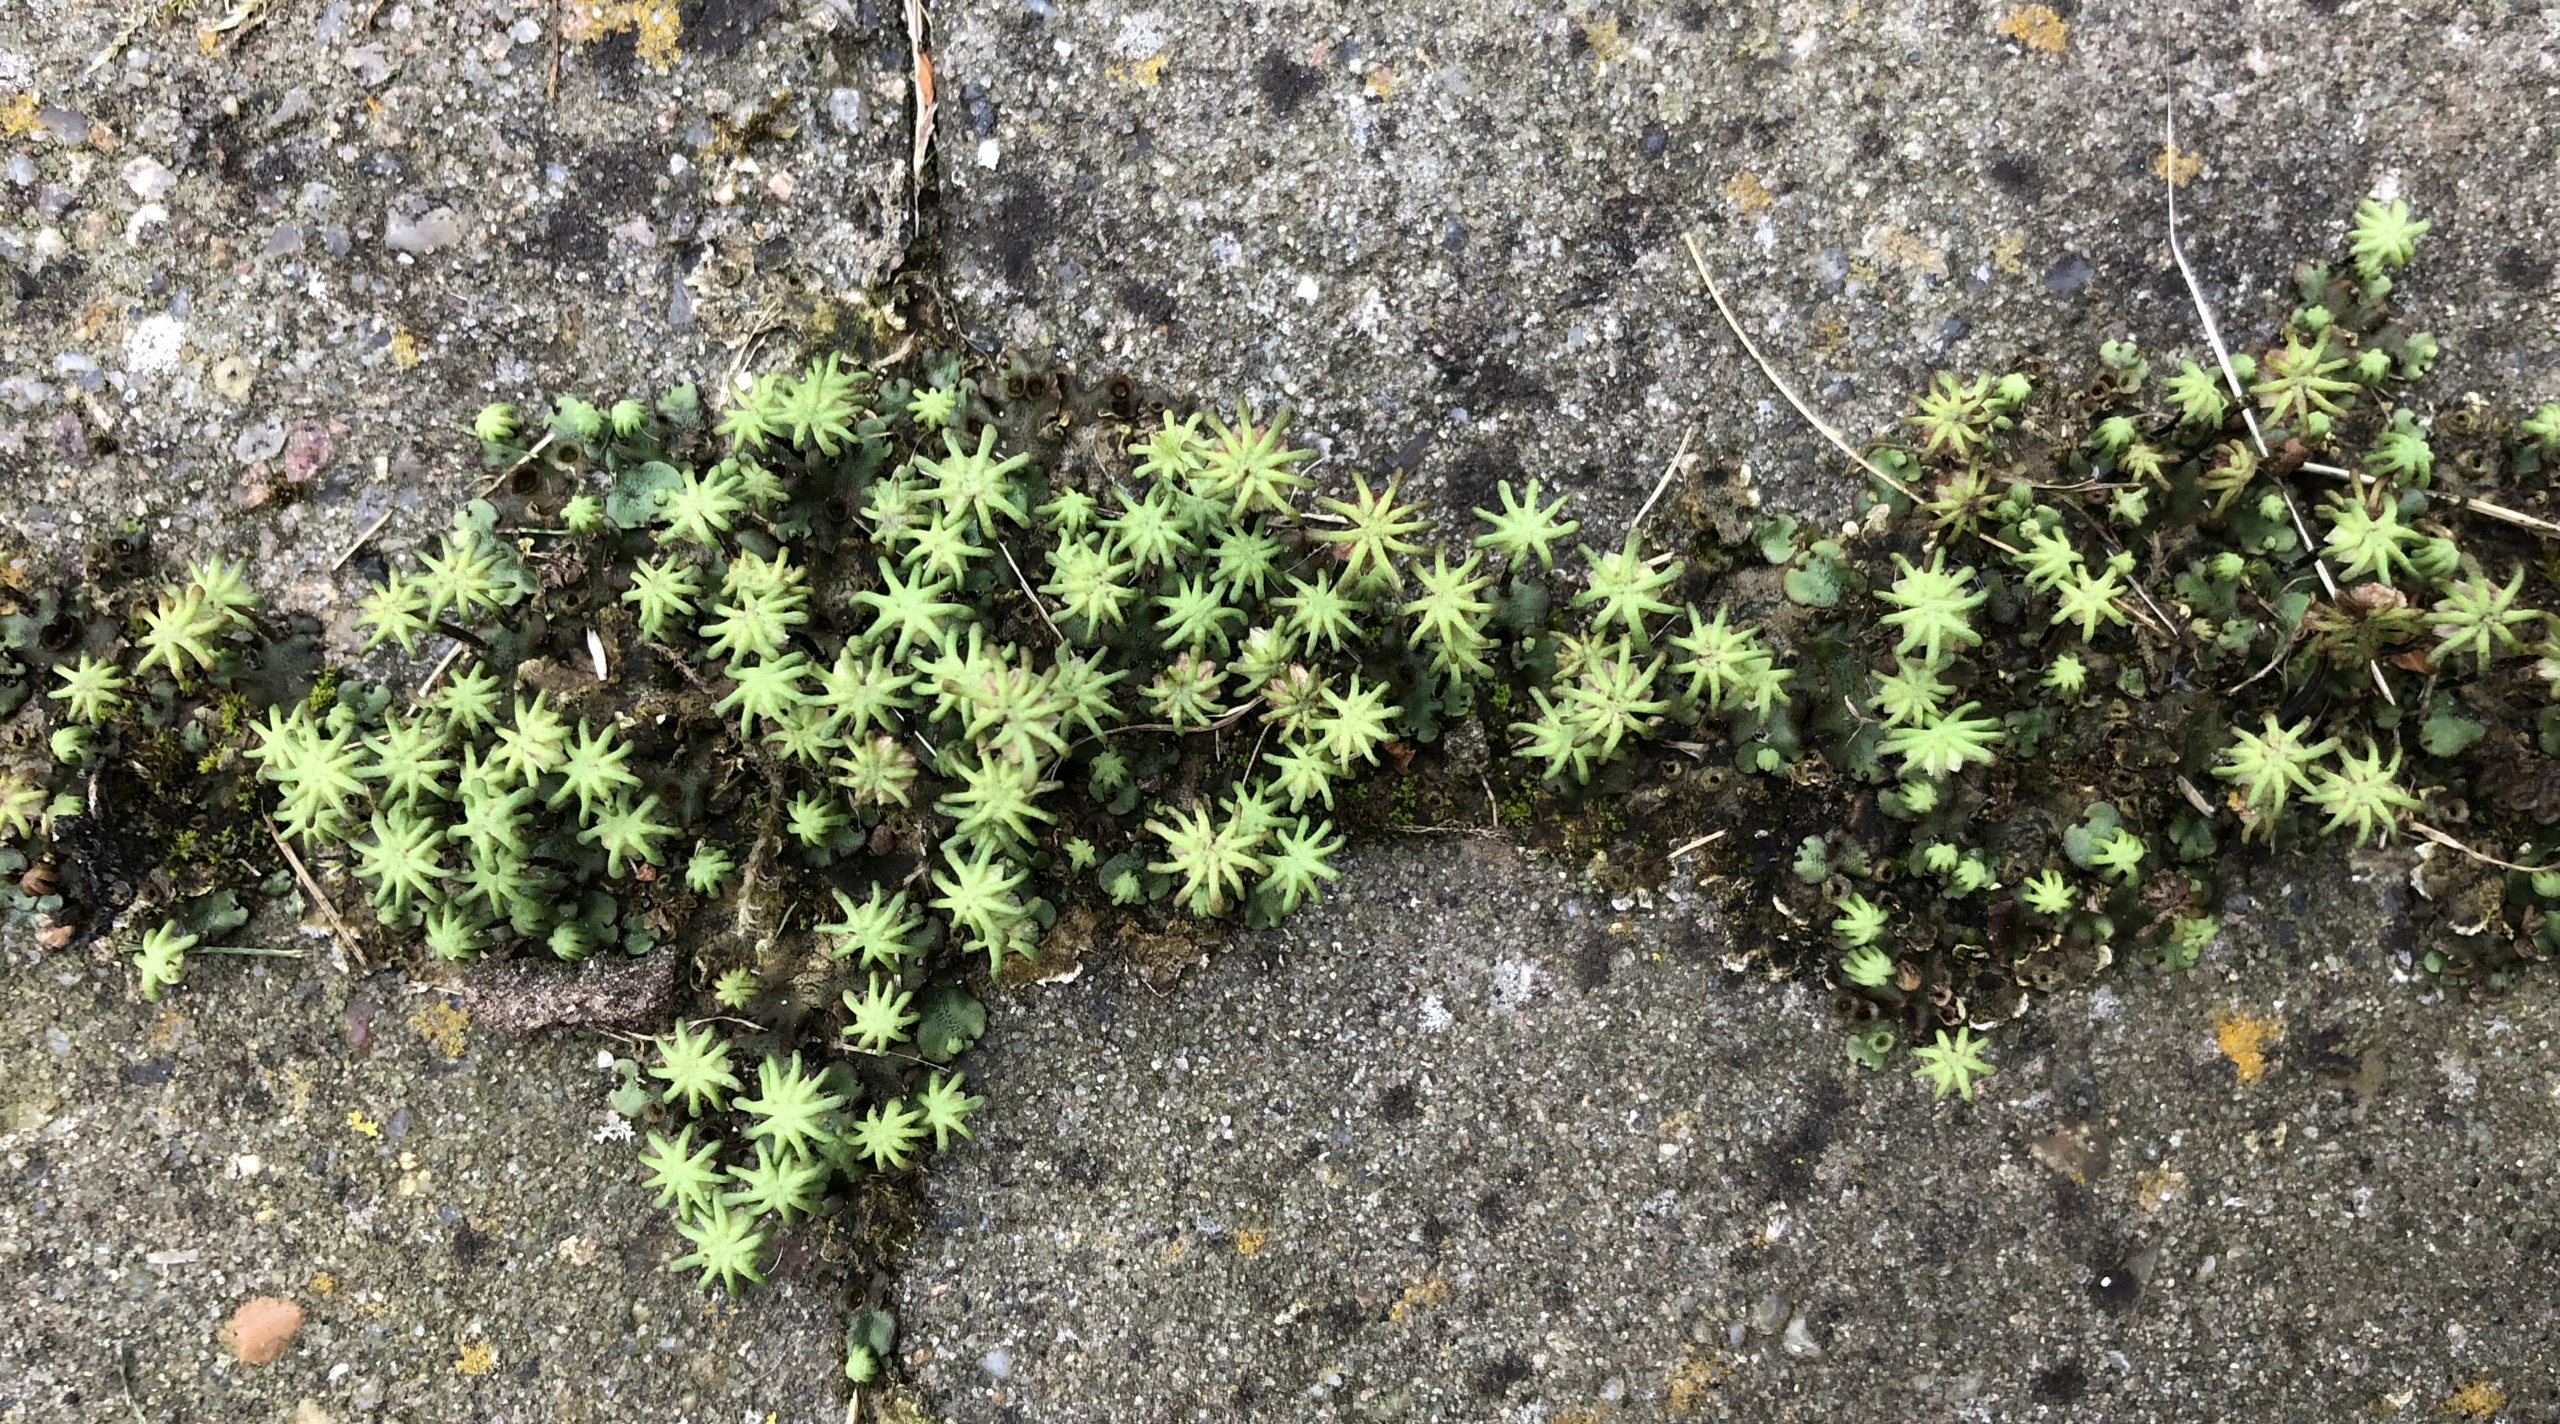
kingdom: Plantae
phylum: Marchantiophyta
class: Marchantiopsida
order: Marchantiales
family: Marchantiaceae
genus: Marchantia
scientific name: Marchantia polymorpha
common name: Almindelig lungemos (underart)
